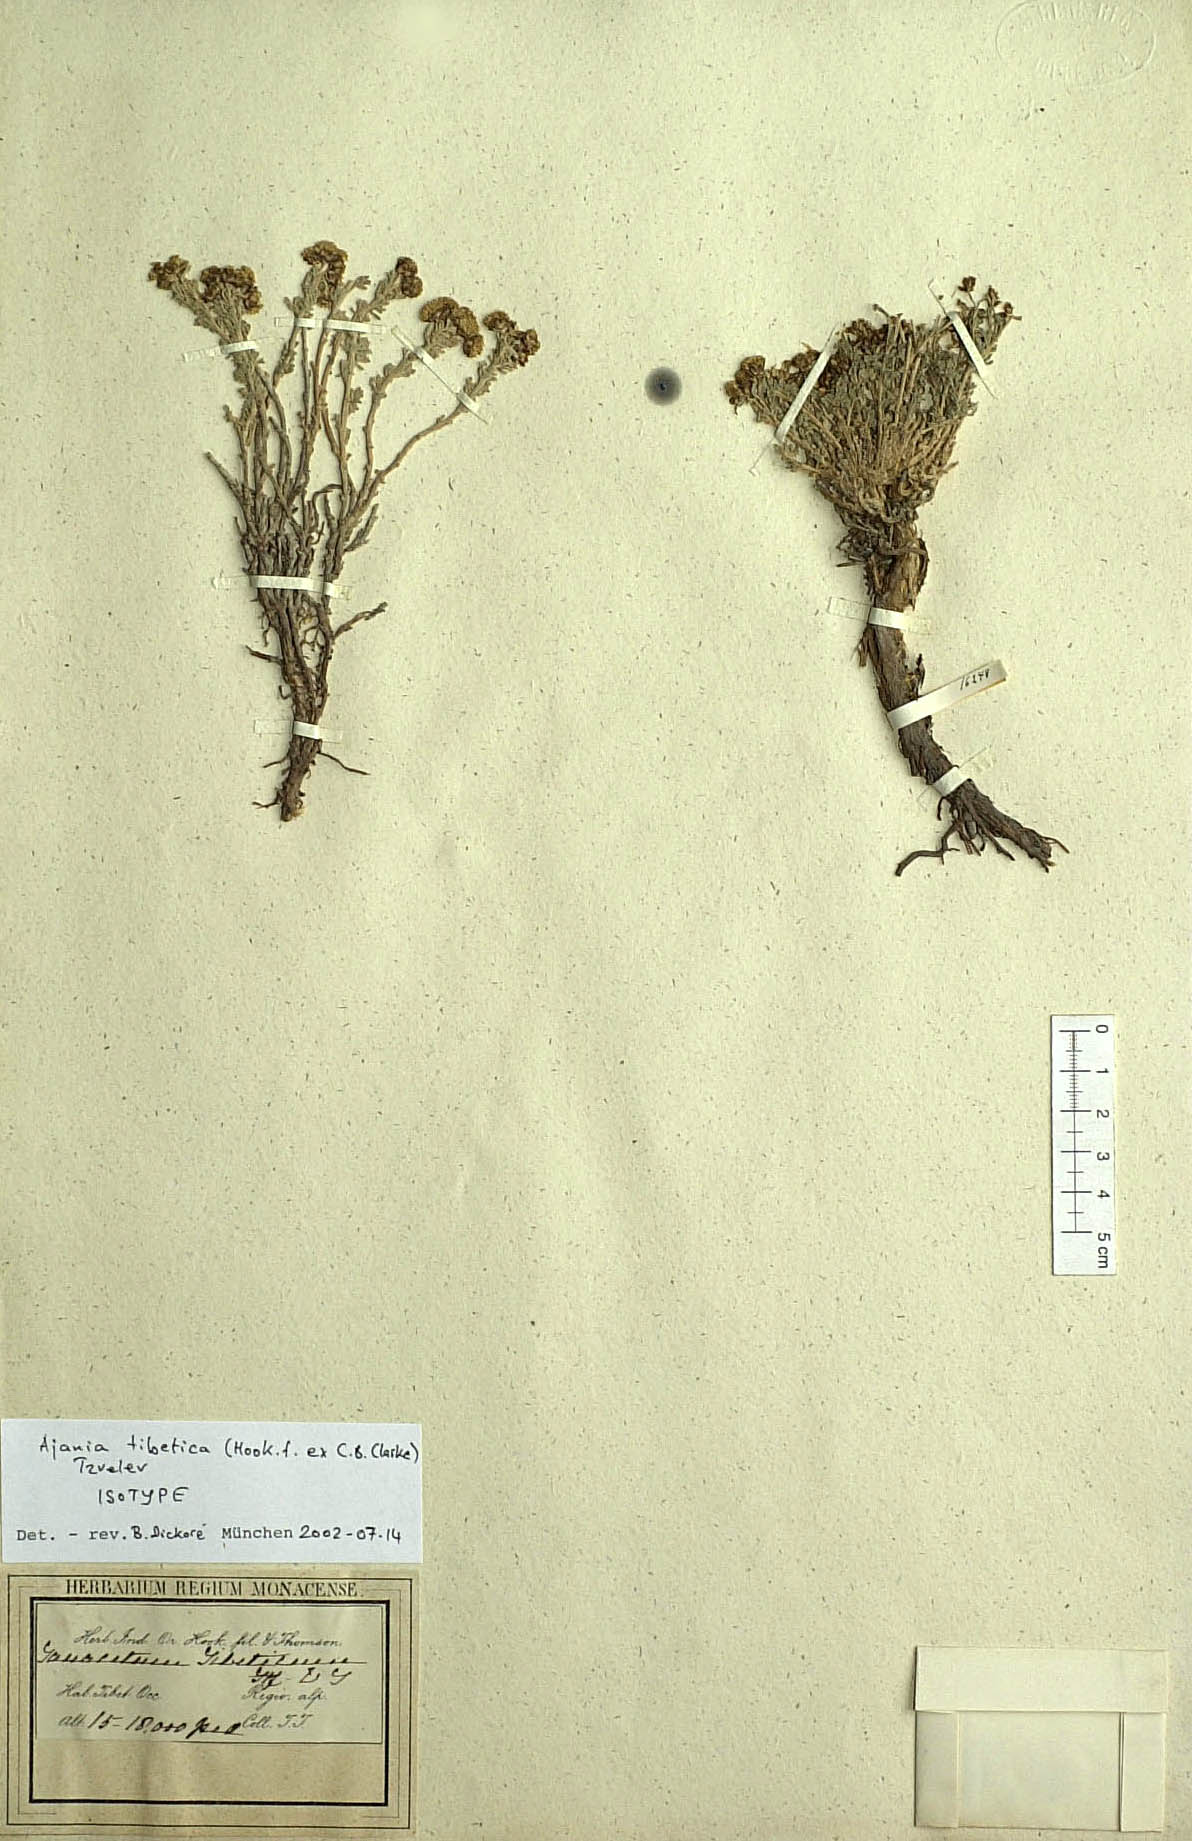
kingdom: Plantae
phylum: Tracheophyta
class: Magnoliopsida
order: Asterales
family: Asteraceae
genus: Ajania
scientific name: Ajania tibetica
